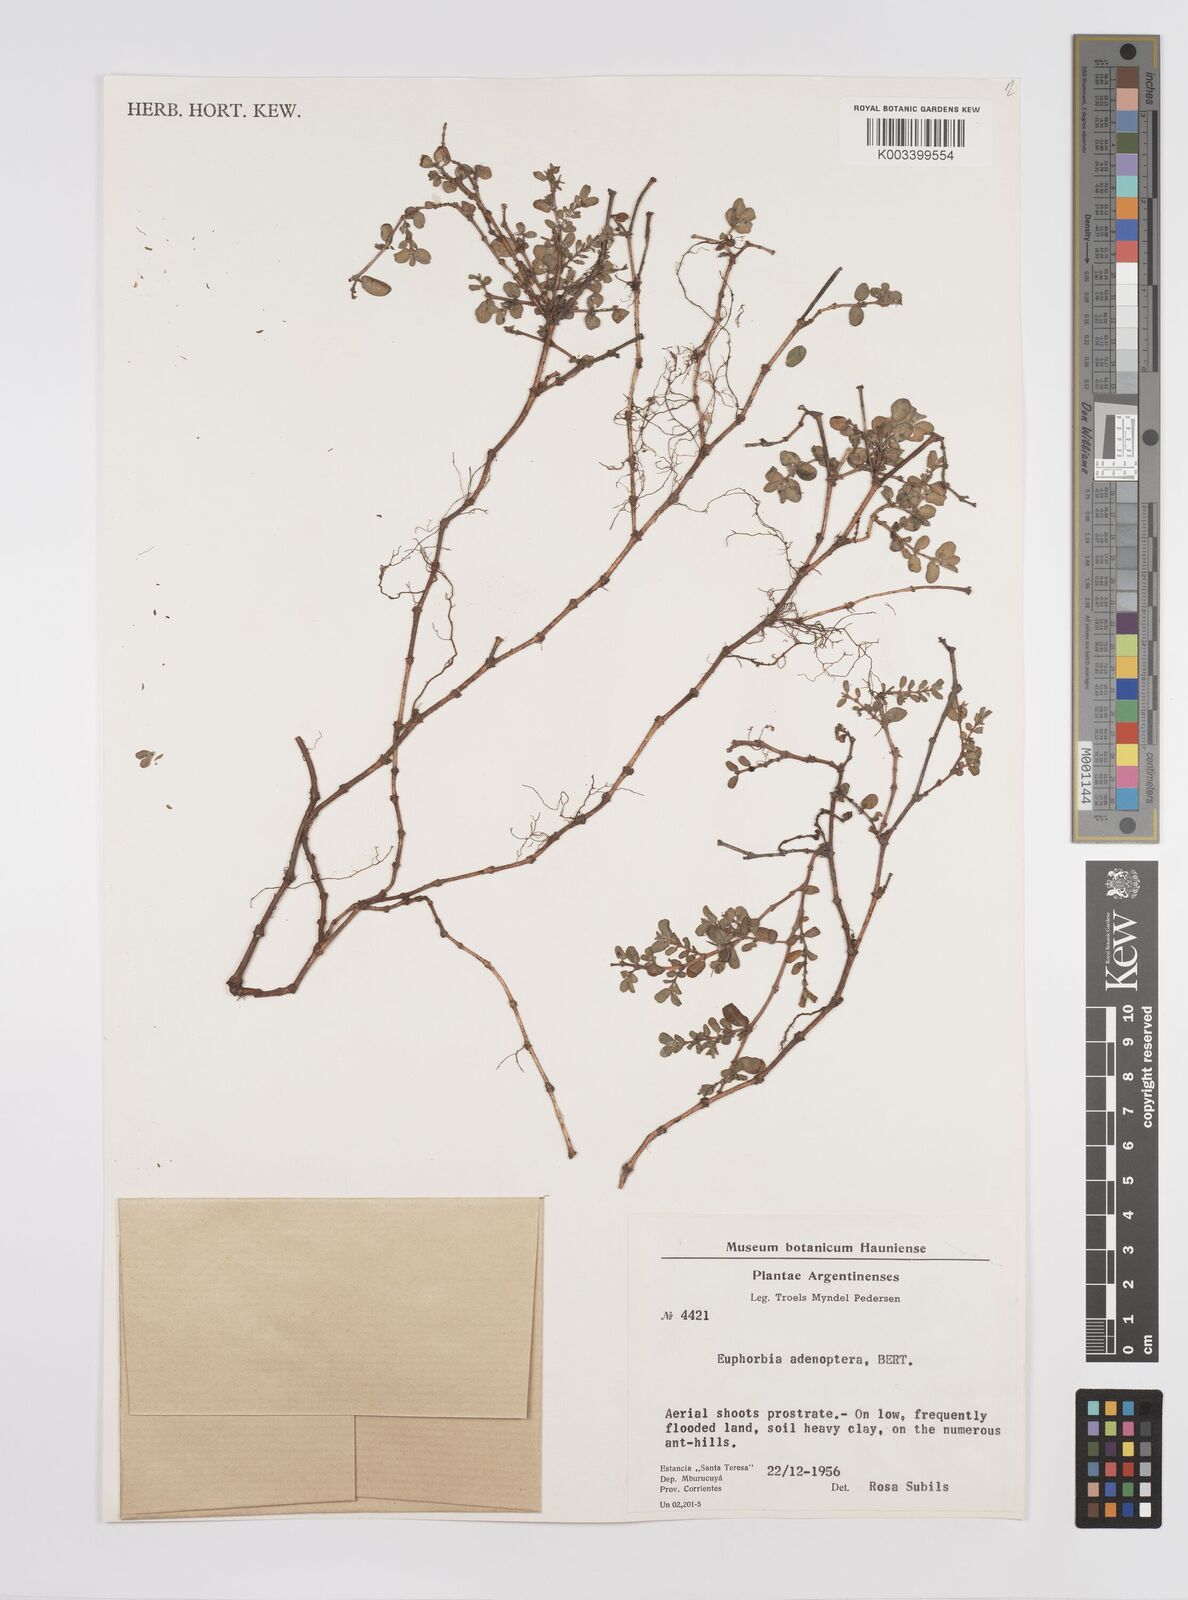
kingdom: Plantae
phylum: Tracheophyta
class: Magnoliopsida
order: Malpighiales
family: Euphorbiaceae
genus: Euphorbia
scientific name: Euphorbia adenoptera
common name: Southern florida sandmat
